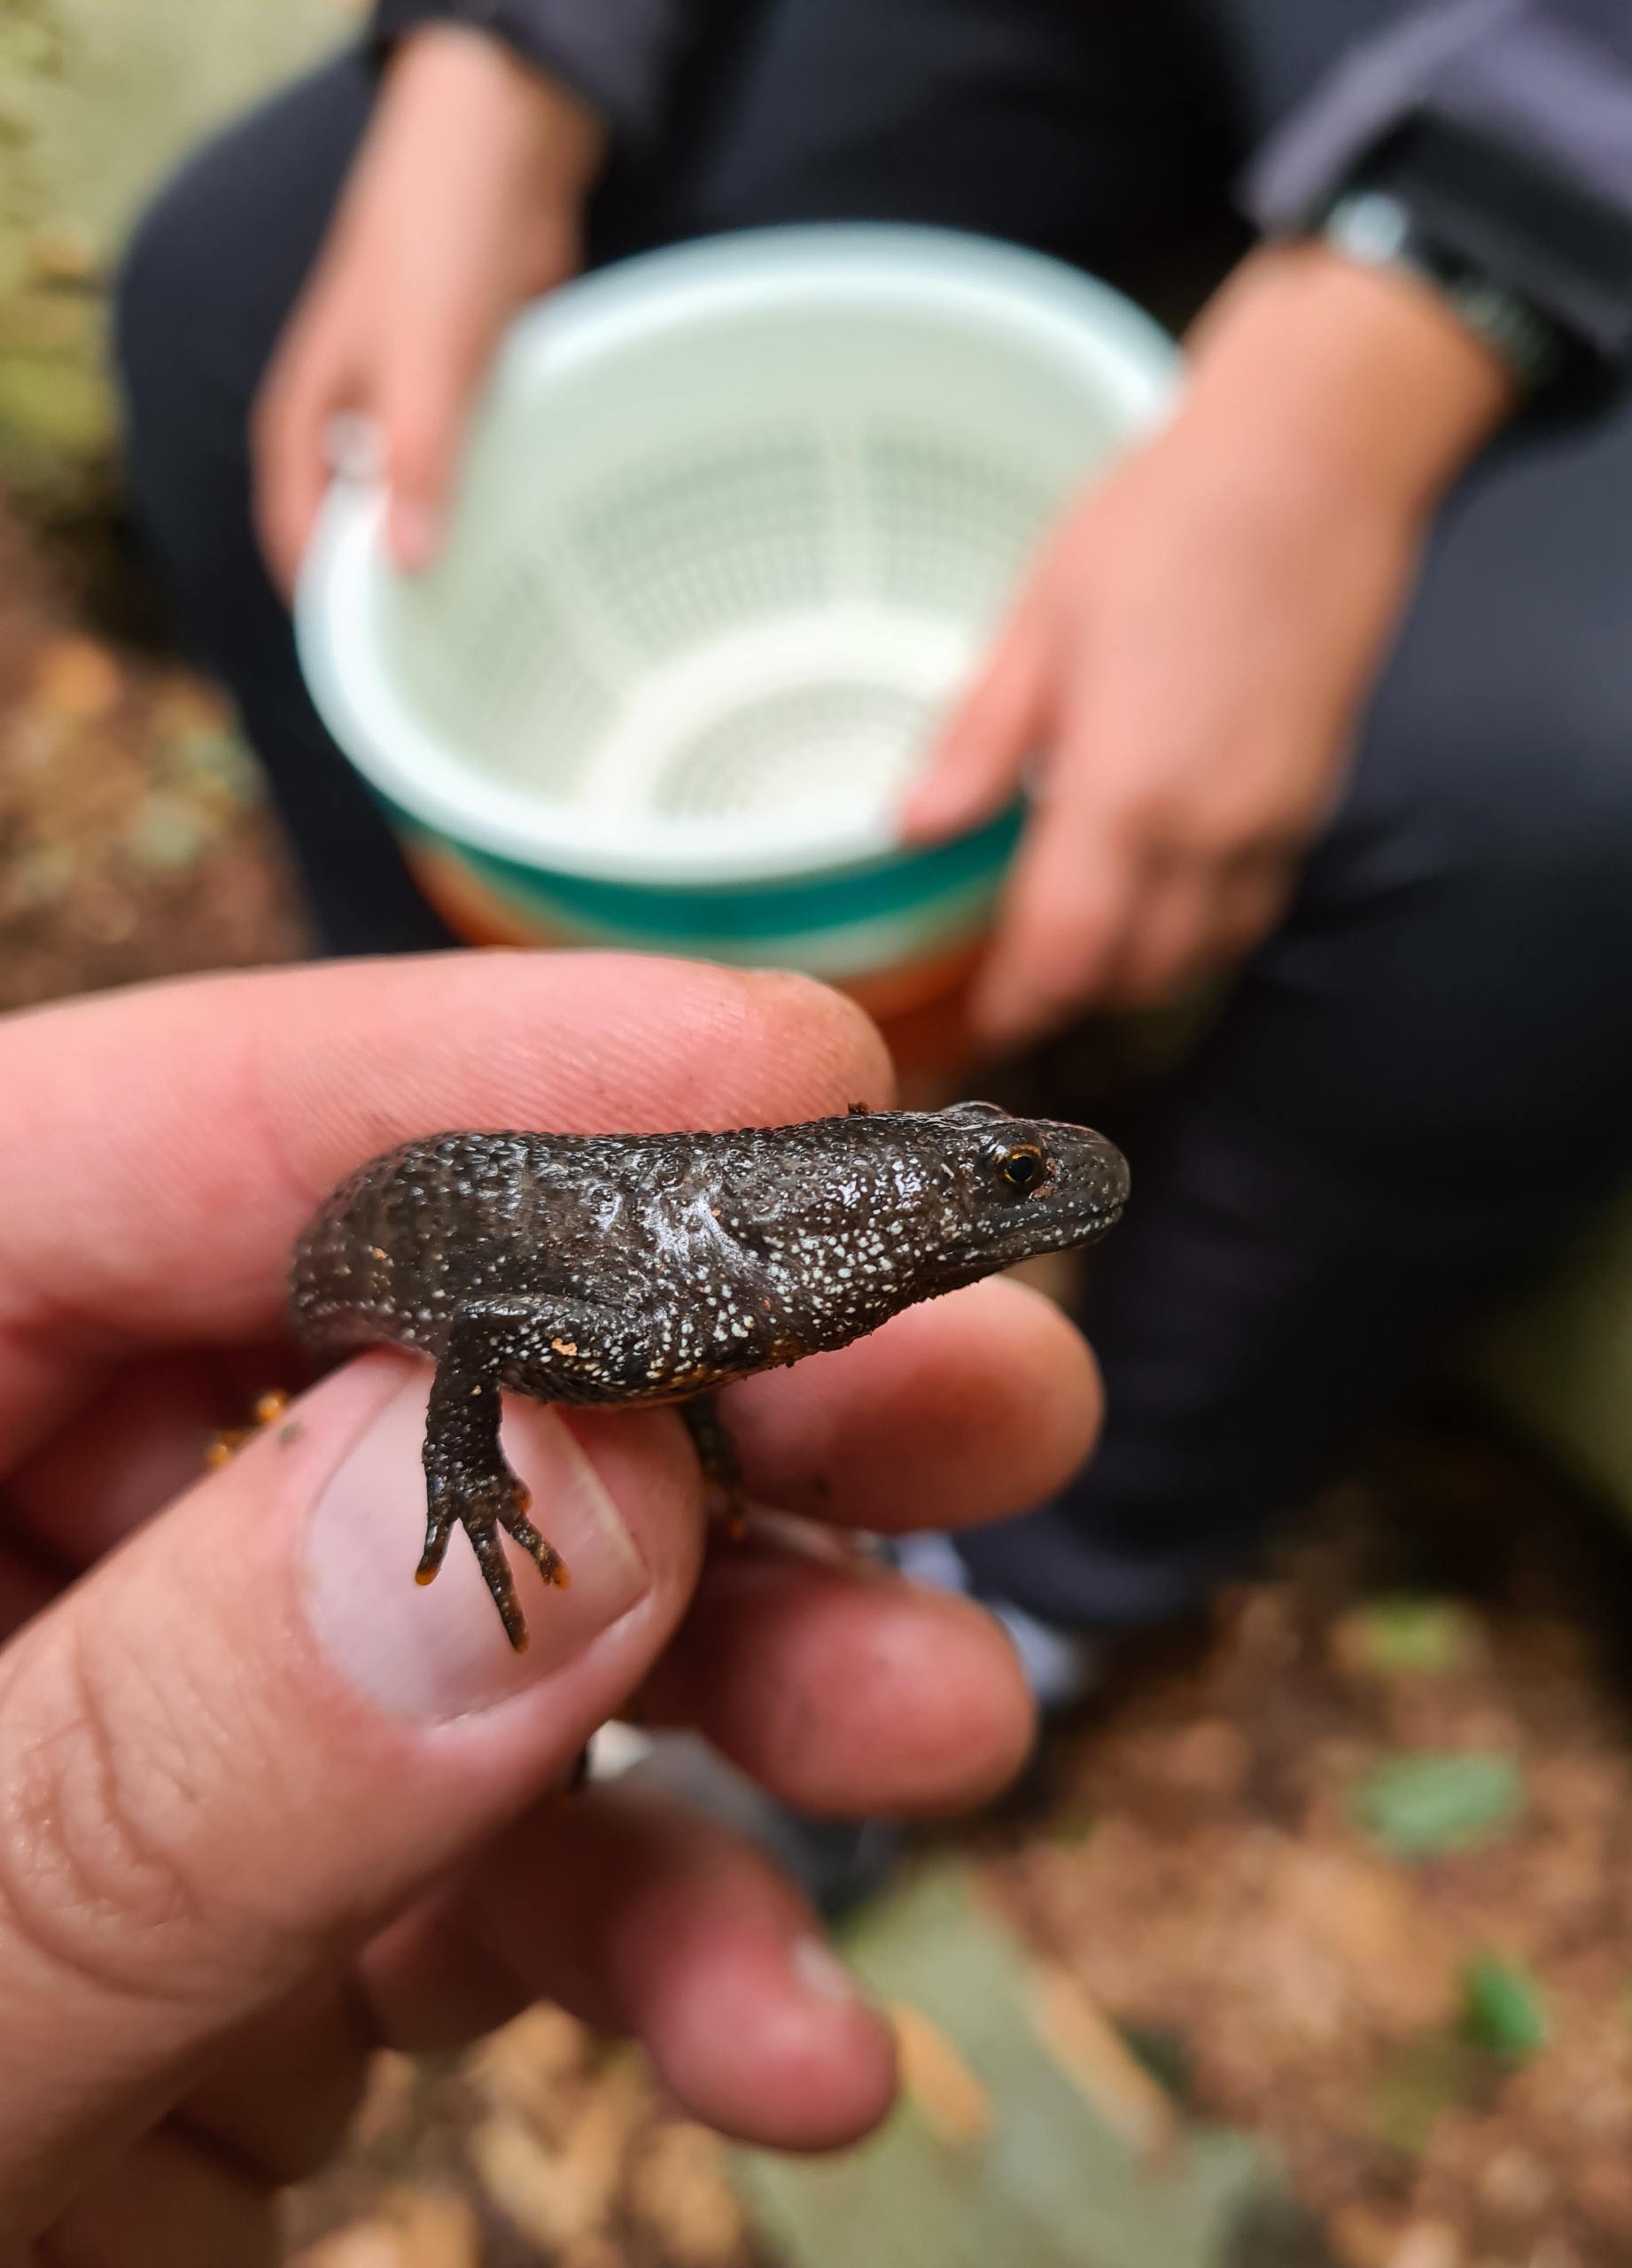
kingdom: Animalia
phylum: Chordata
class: Amphibia
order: Caudata
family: Salamandridae
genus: Triturus
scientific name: Triturus cristatus
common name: Stor vandsalamander
